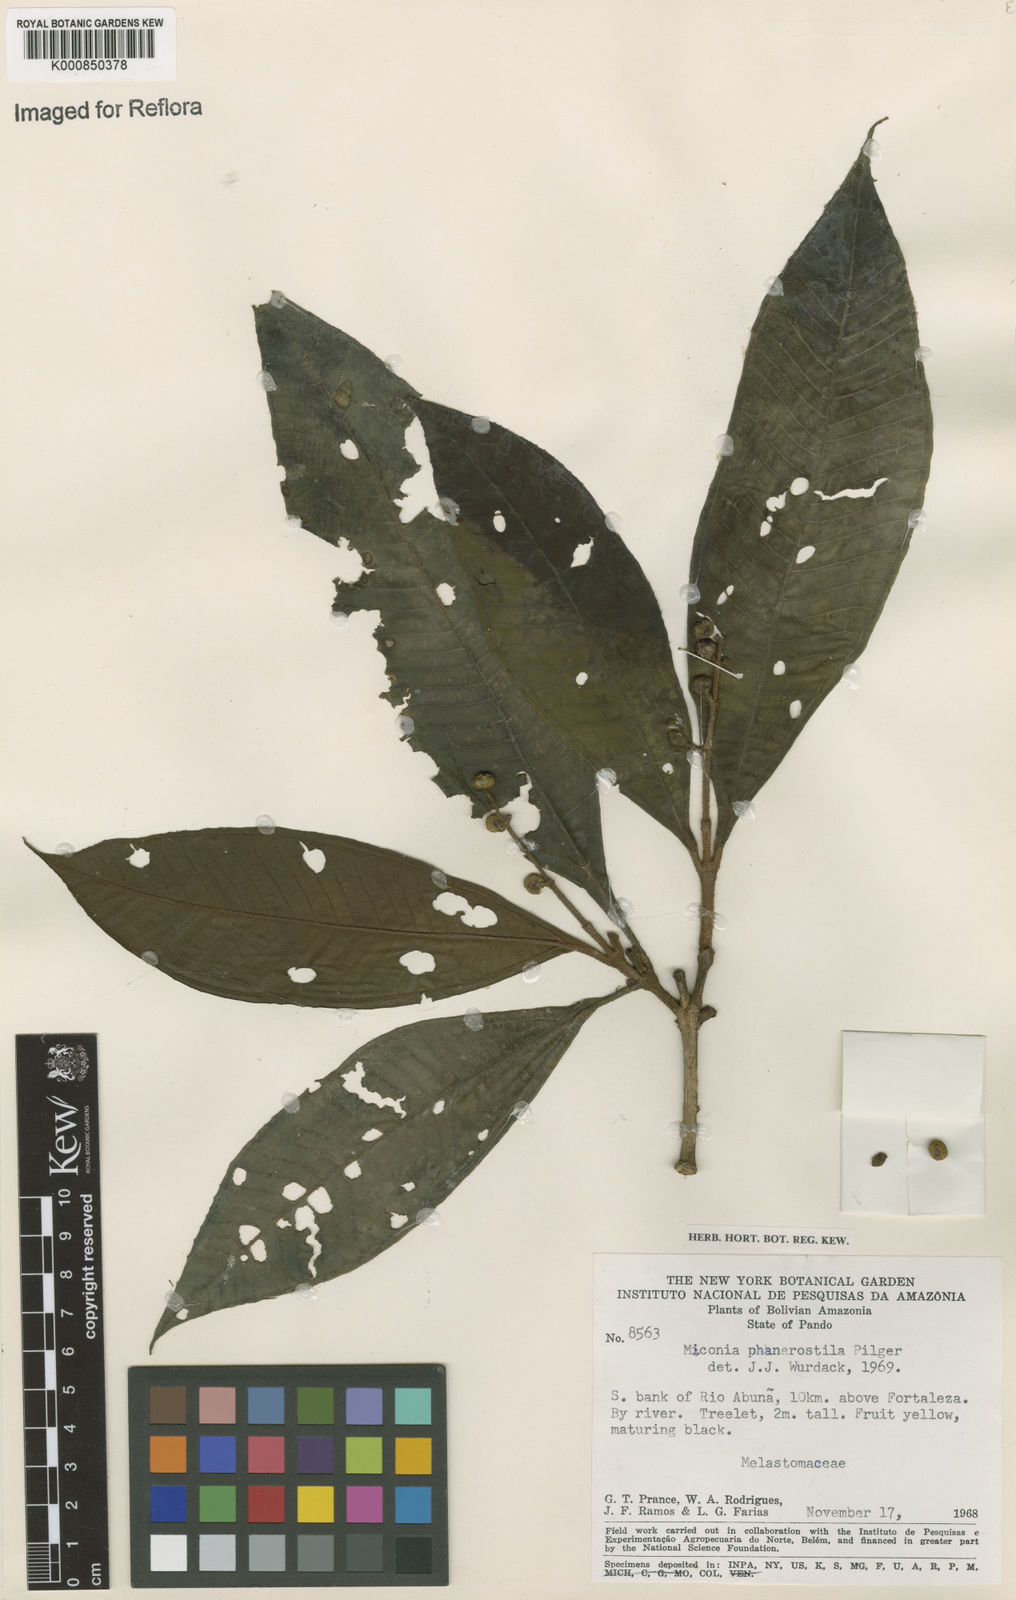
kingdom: Plantae
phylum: Tracheophyta
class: Magnoliopsida
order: Myrtales
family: Melastomataceae
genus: Miconia
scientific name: Miconia phanerostila
